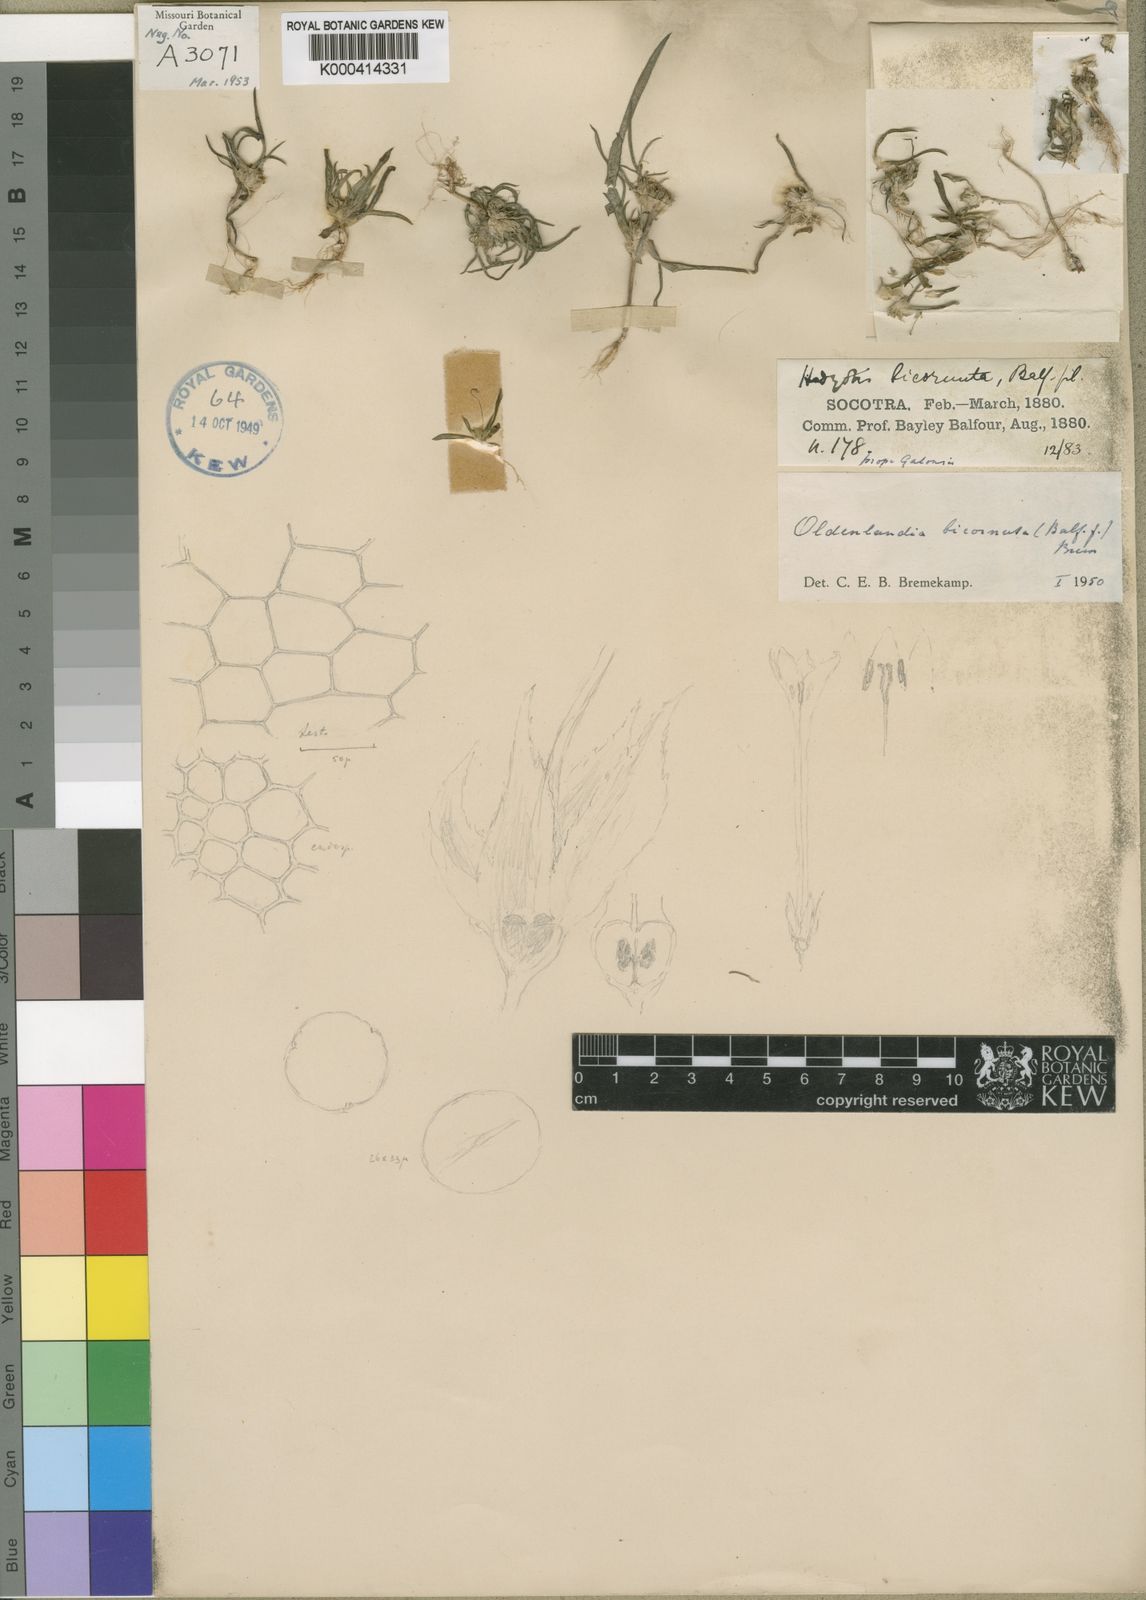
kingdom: Plantae
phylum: Tracheophyta
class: Magnoliopsida
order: Gentianales
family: Rubiaceae
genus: Oldenlandia
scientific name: Oldenlandia bicornuta
